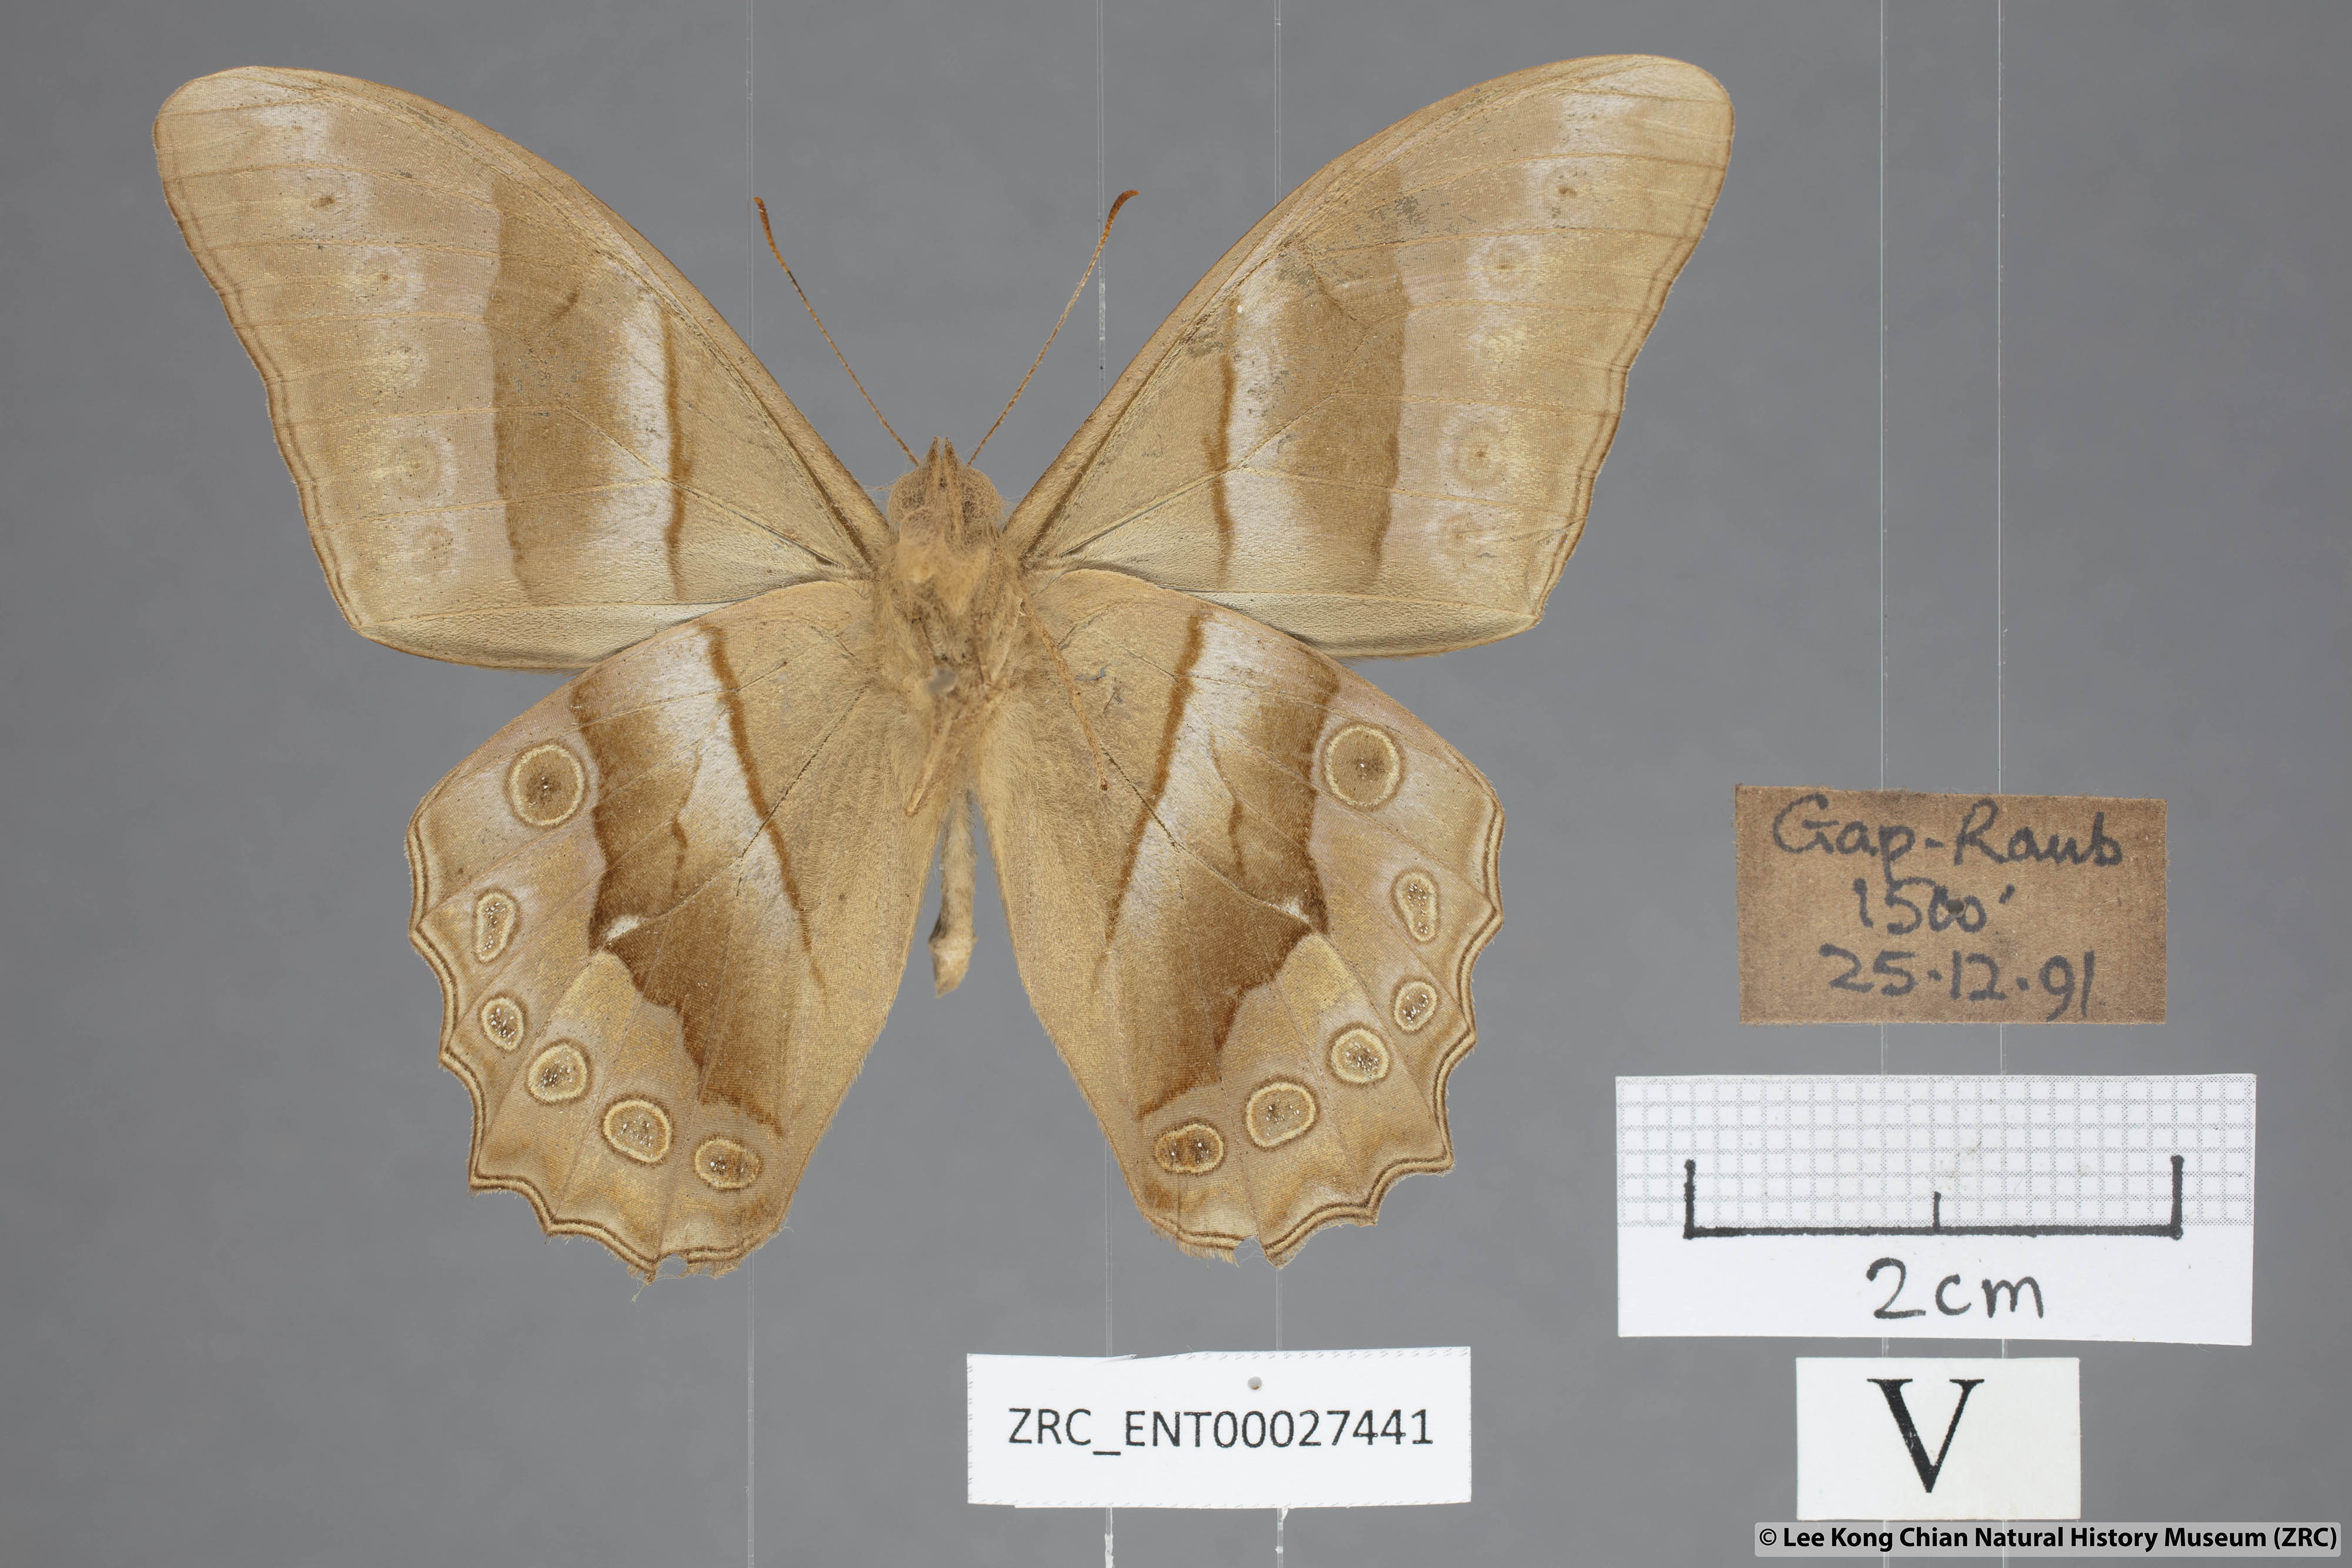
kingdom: Animalia
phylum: Arthropoda
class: Insecta
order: Lepidoptera
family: Nymphalidae
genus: Lethe
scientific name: Lethe mekara
